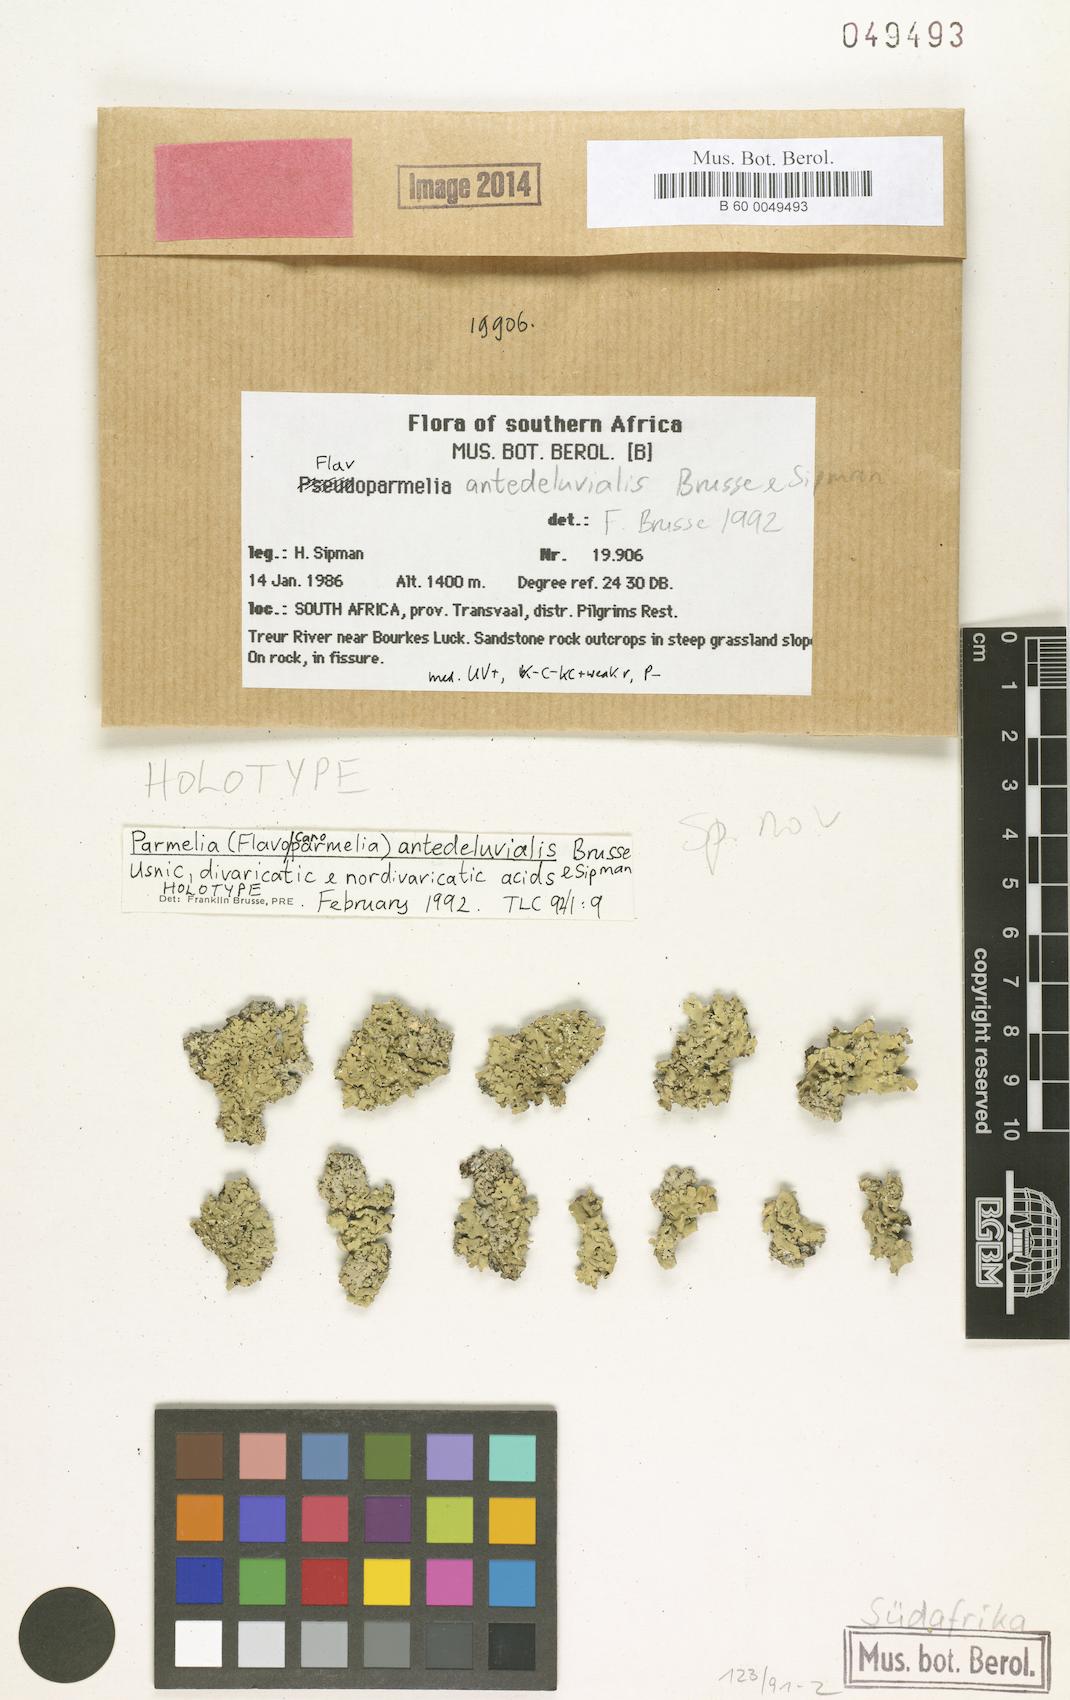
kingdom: Fungi
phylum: Ascomycota
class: Lecanoromycetes
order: Lecanorales
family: Parmeliaceae
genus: Parmelia
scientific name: Parmelia
